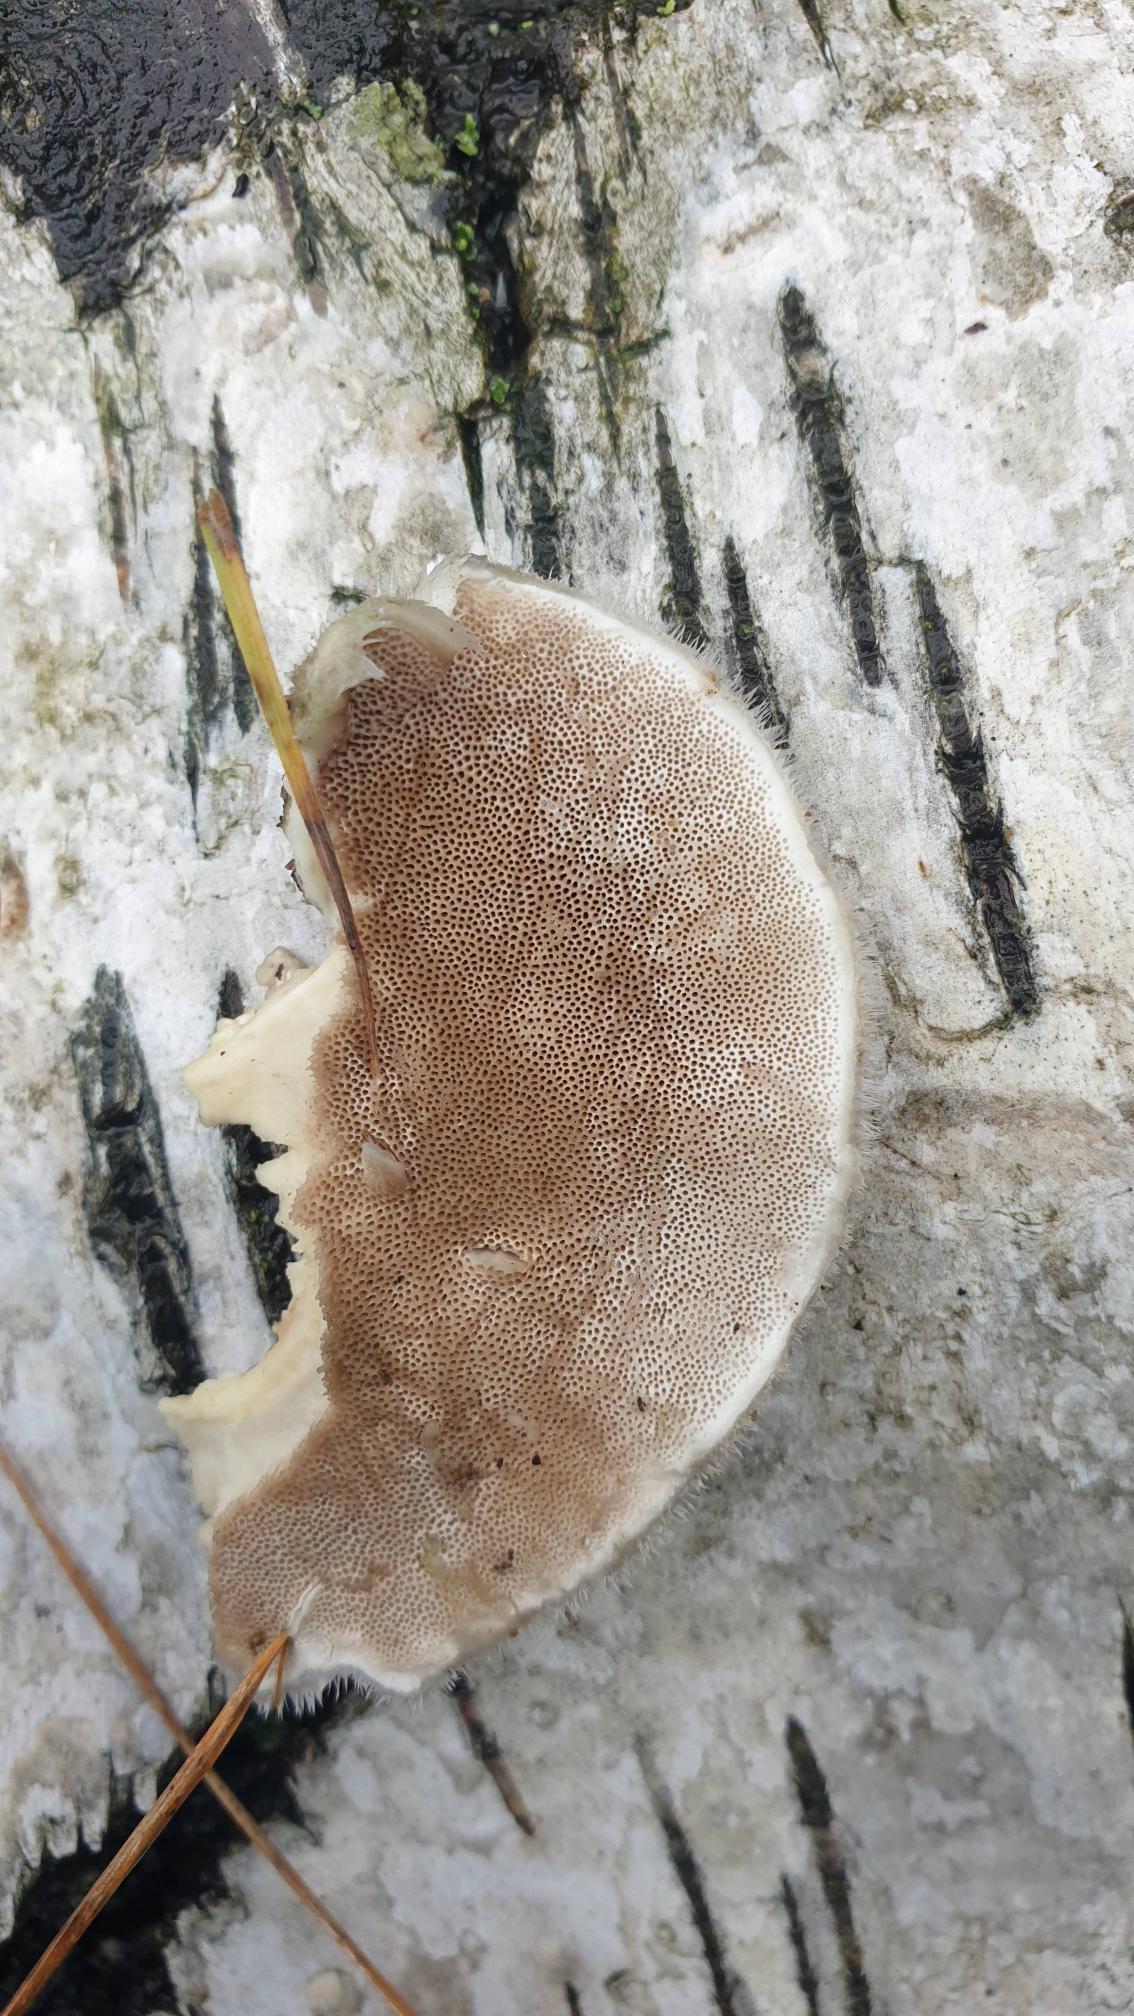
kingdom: Fungi
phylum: Basidiomycota
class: Agaricomycetes
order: Polyporales
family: Polyporaceae
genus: Trametes
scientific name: Trametes hirsuta
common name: Håret læderporesvamp
